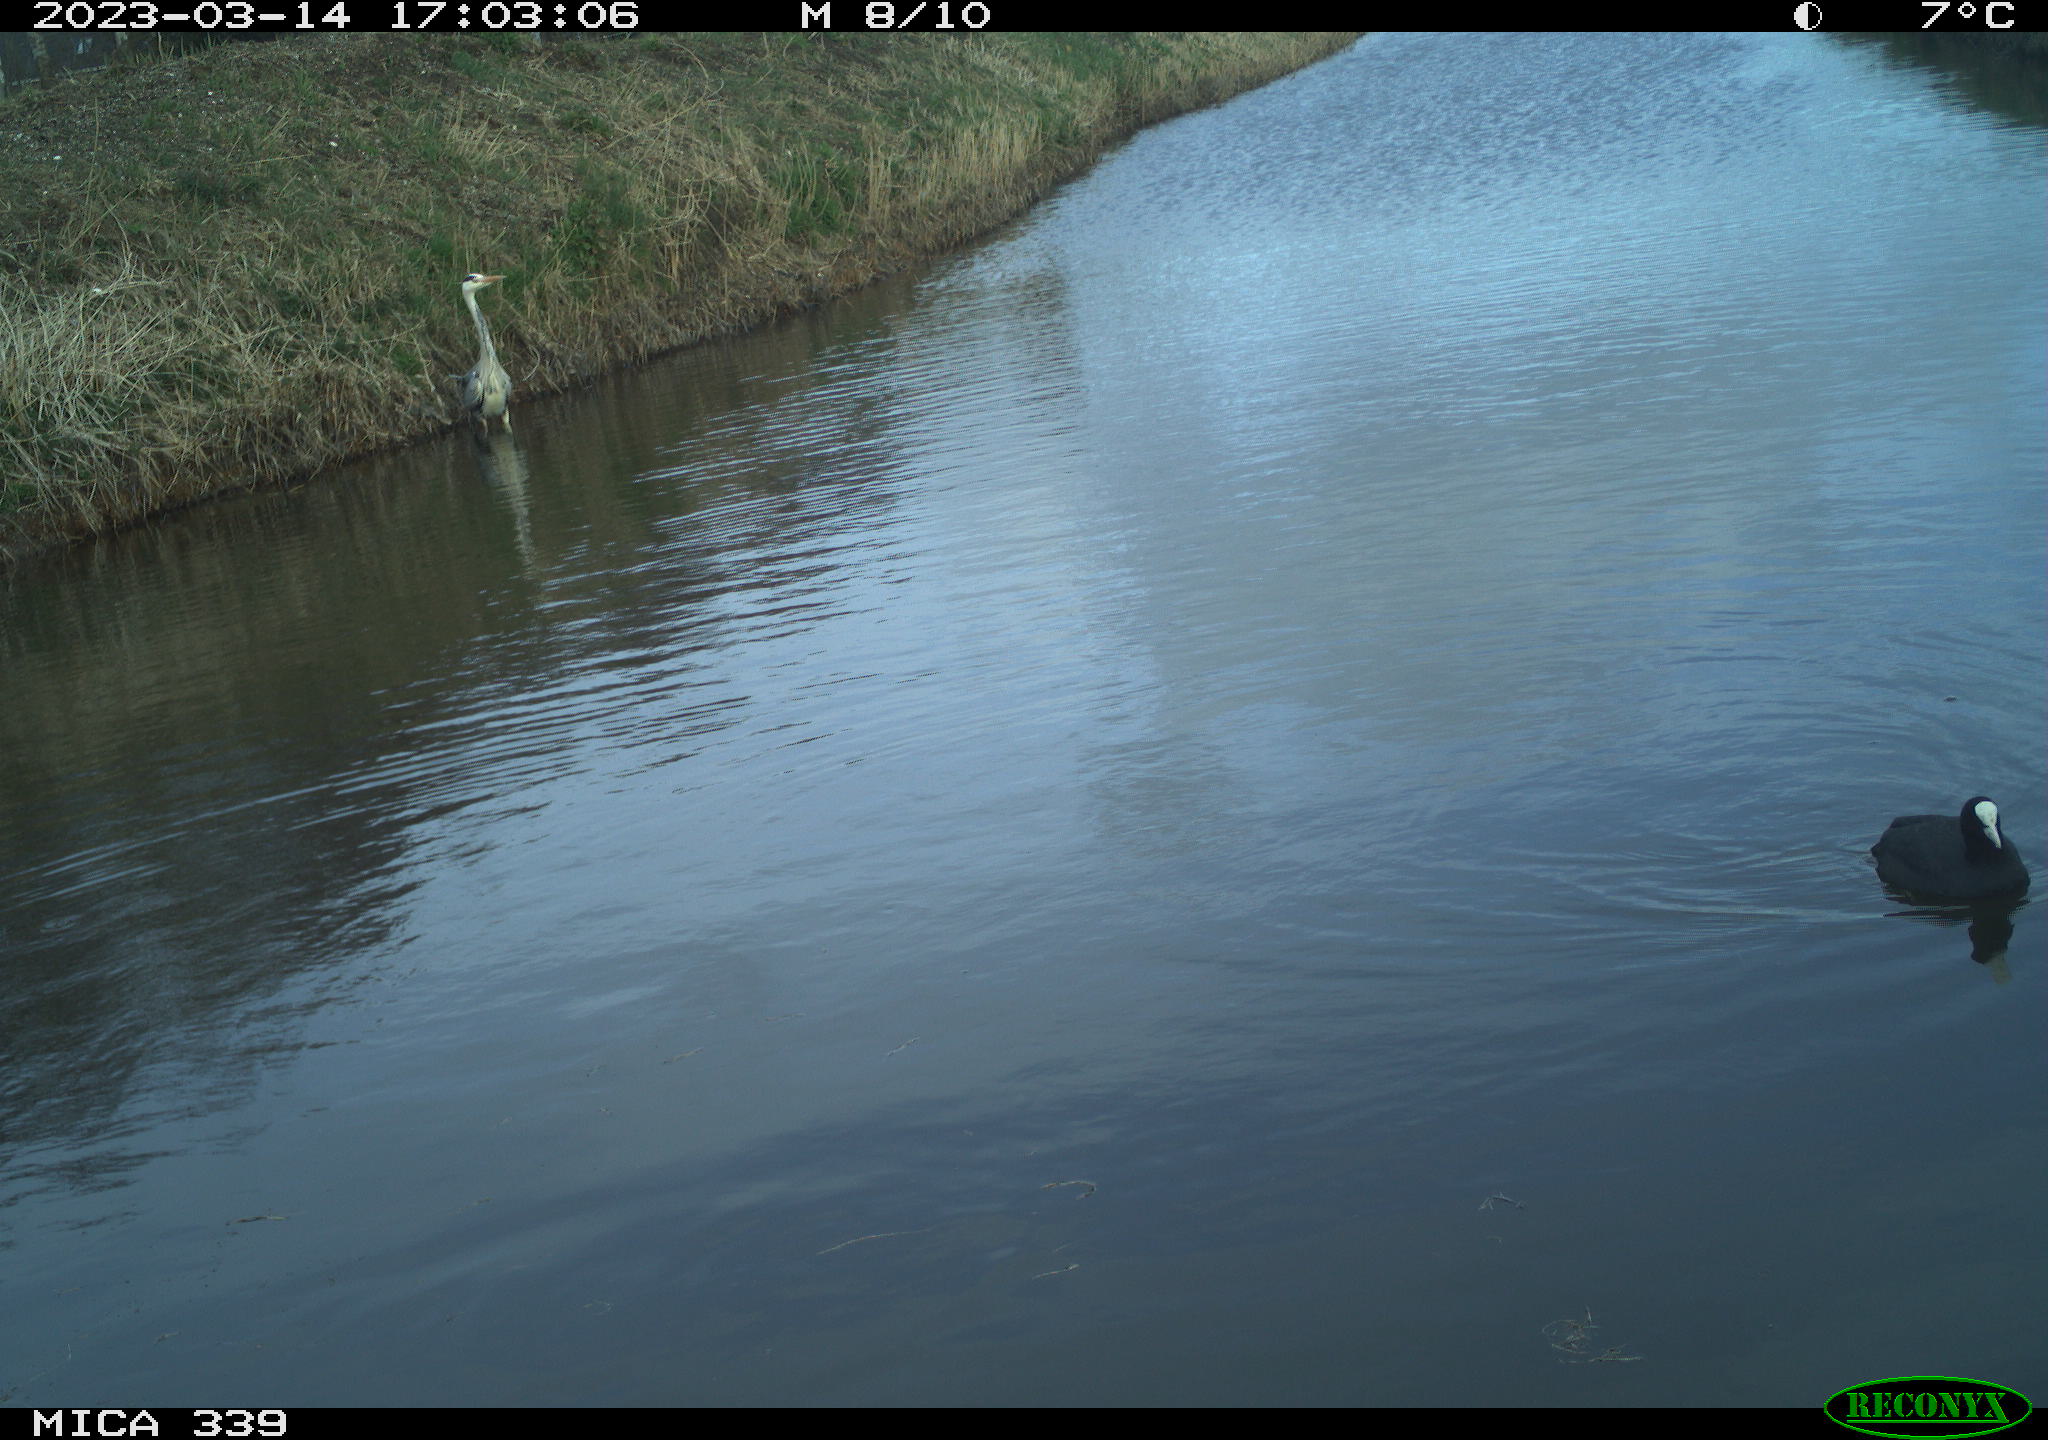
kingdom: Animalia
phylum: Chordata
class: Aves
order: Suliformes
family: Phalacrocoracidae
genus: Phalacrocorax
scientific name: Phalacrocorax carbo
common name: Great cormorant
